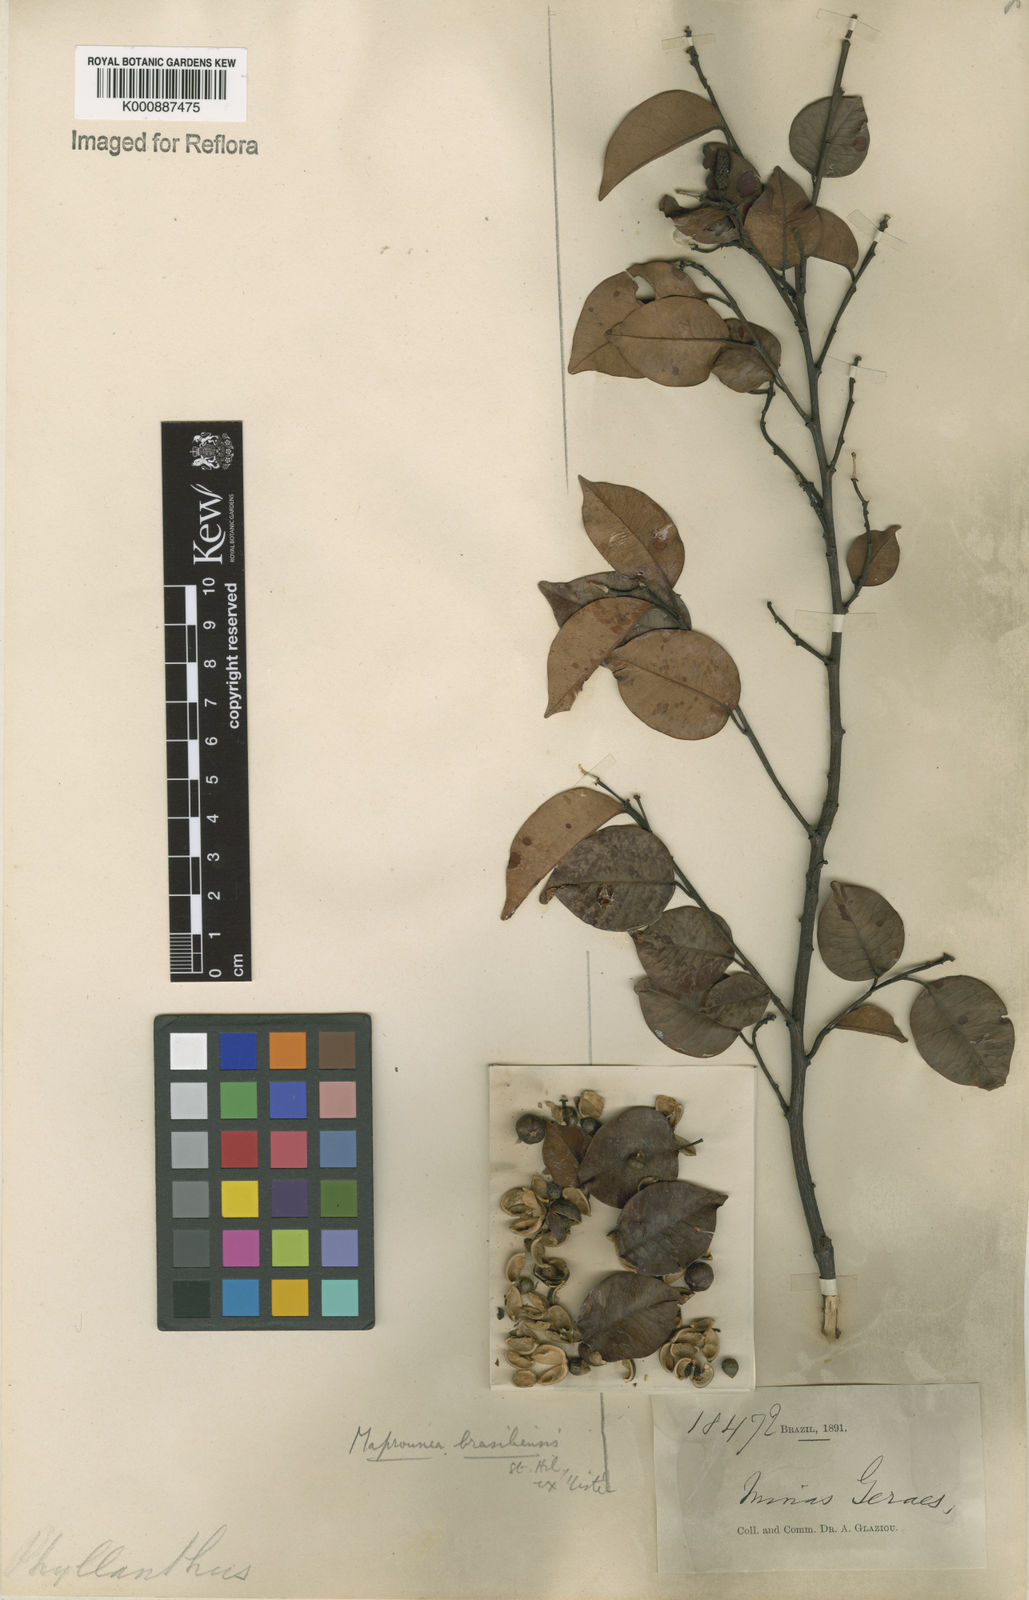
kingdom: Plantae
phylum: Tracheophyta
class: Magnoliopsida
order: Malpighiales
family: Euphorbiaceae
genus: Maprounea
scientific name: Maprounea brasiliensis
